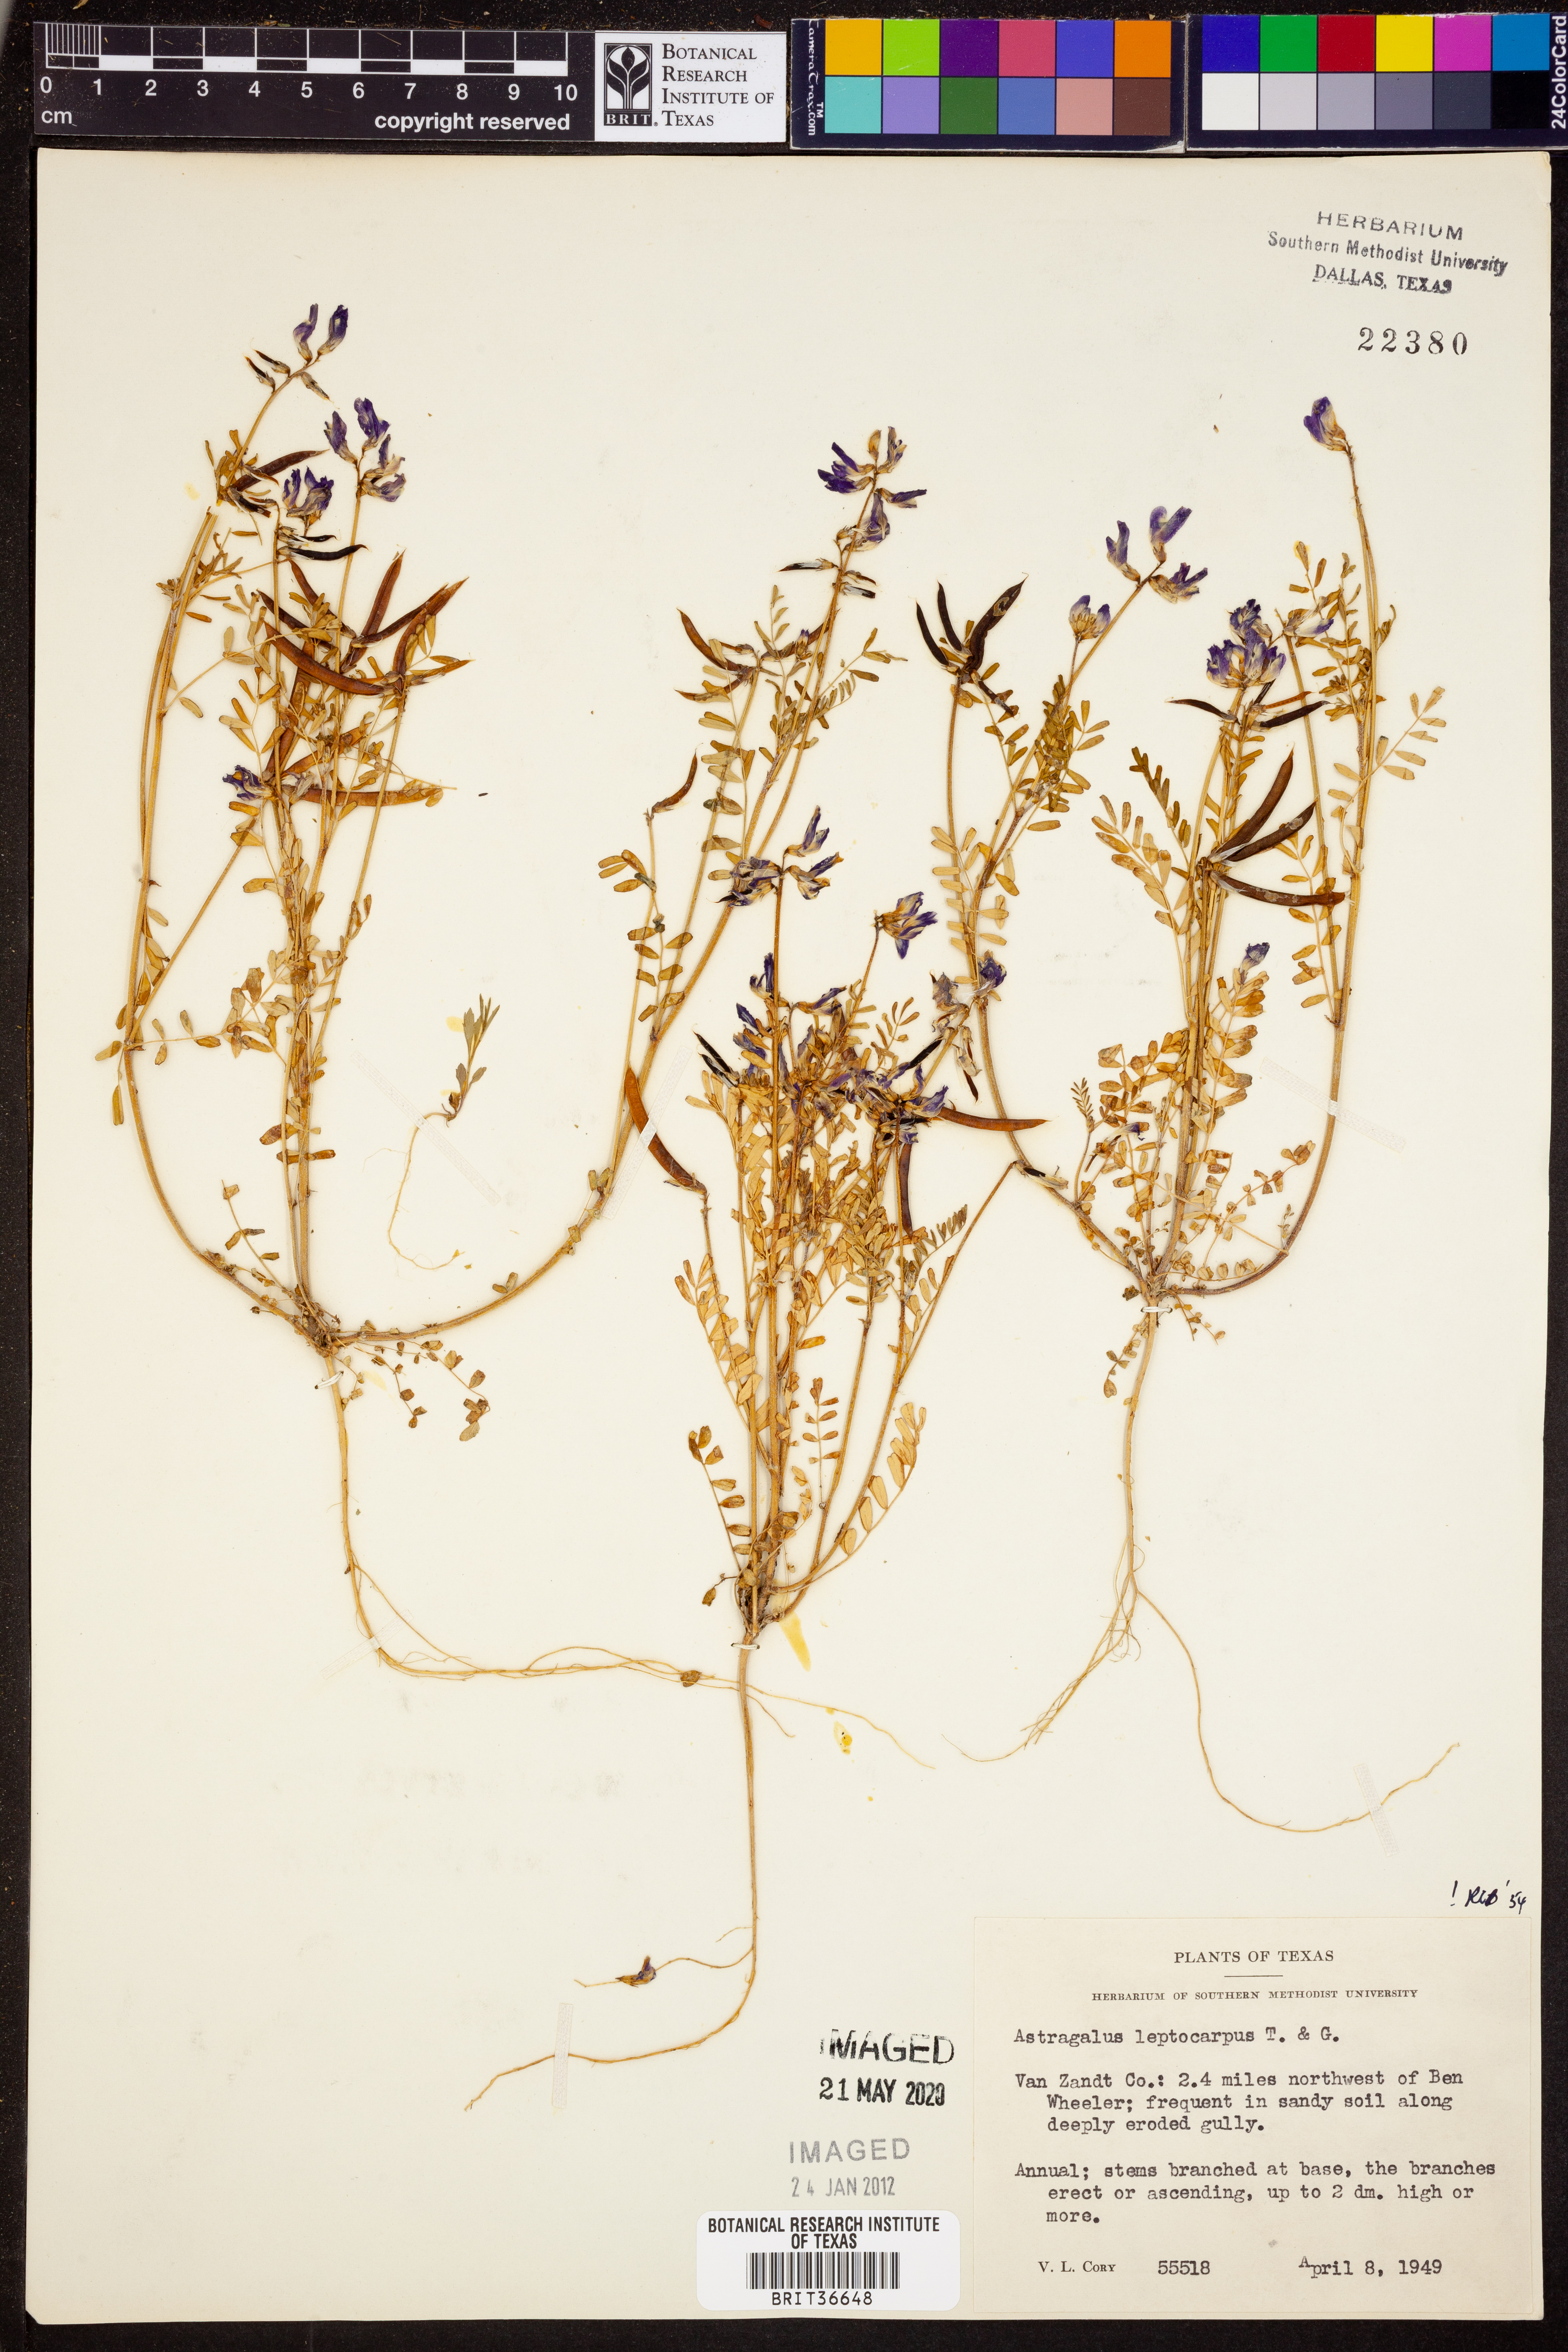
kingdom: Plantae
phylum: Tracheophyta
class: Magnoliopsida
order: Fabales
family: Fabaceae
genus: Astragalus
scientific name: Astragalus leptocarpus
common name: Bodkin milk-vetch
